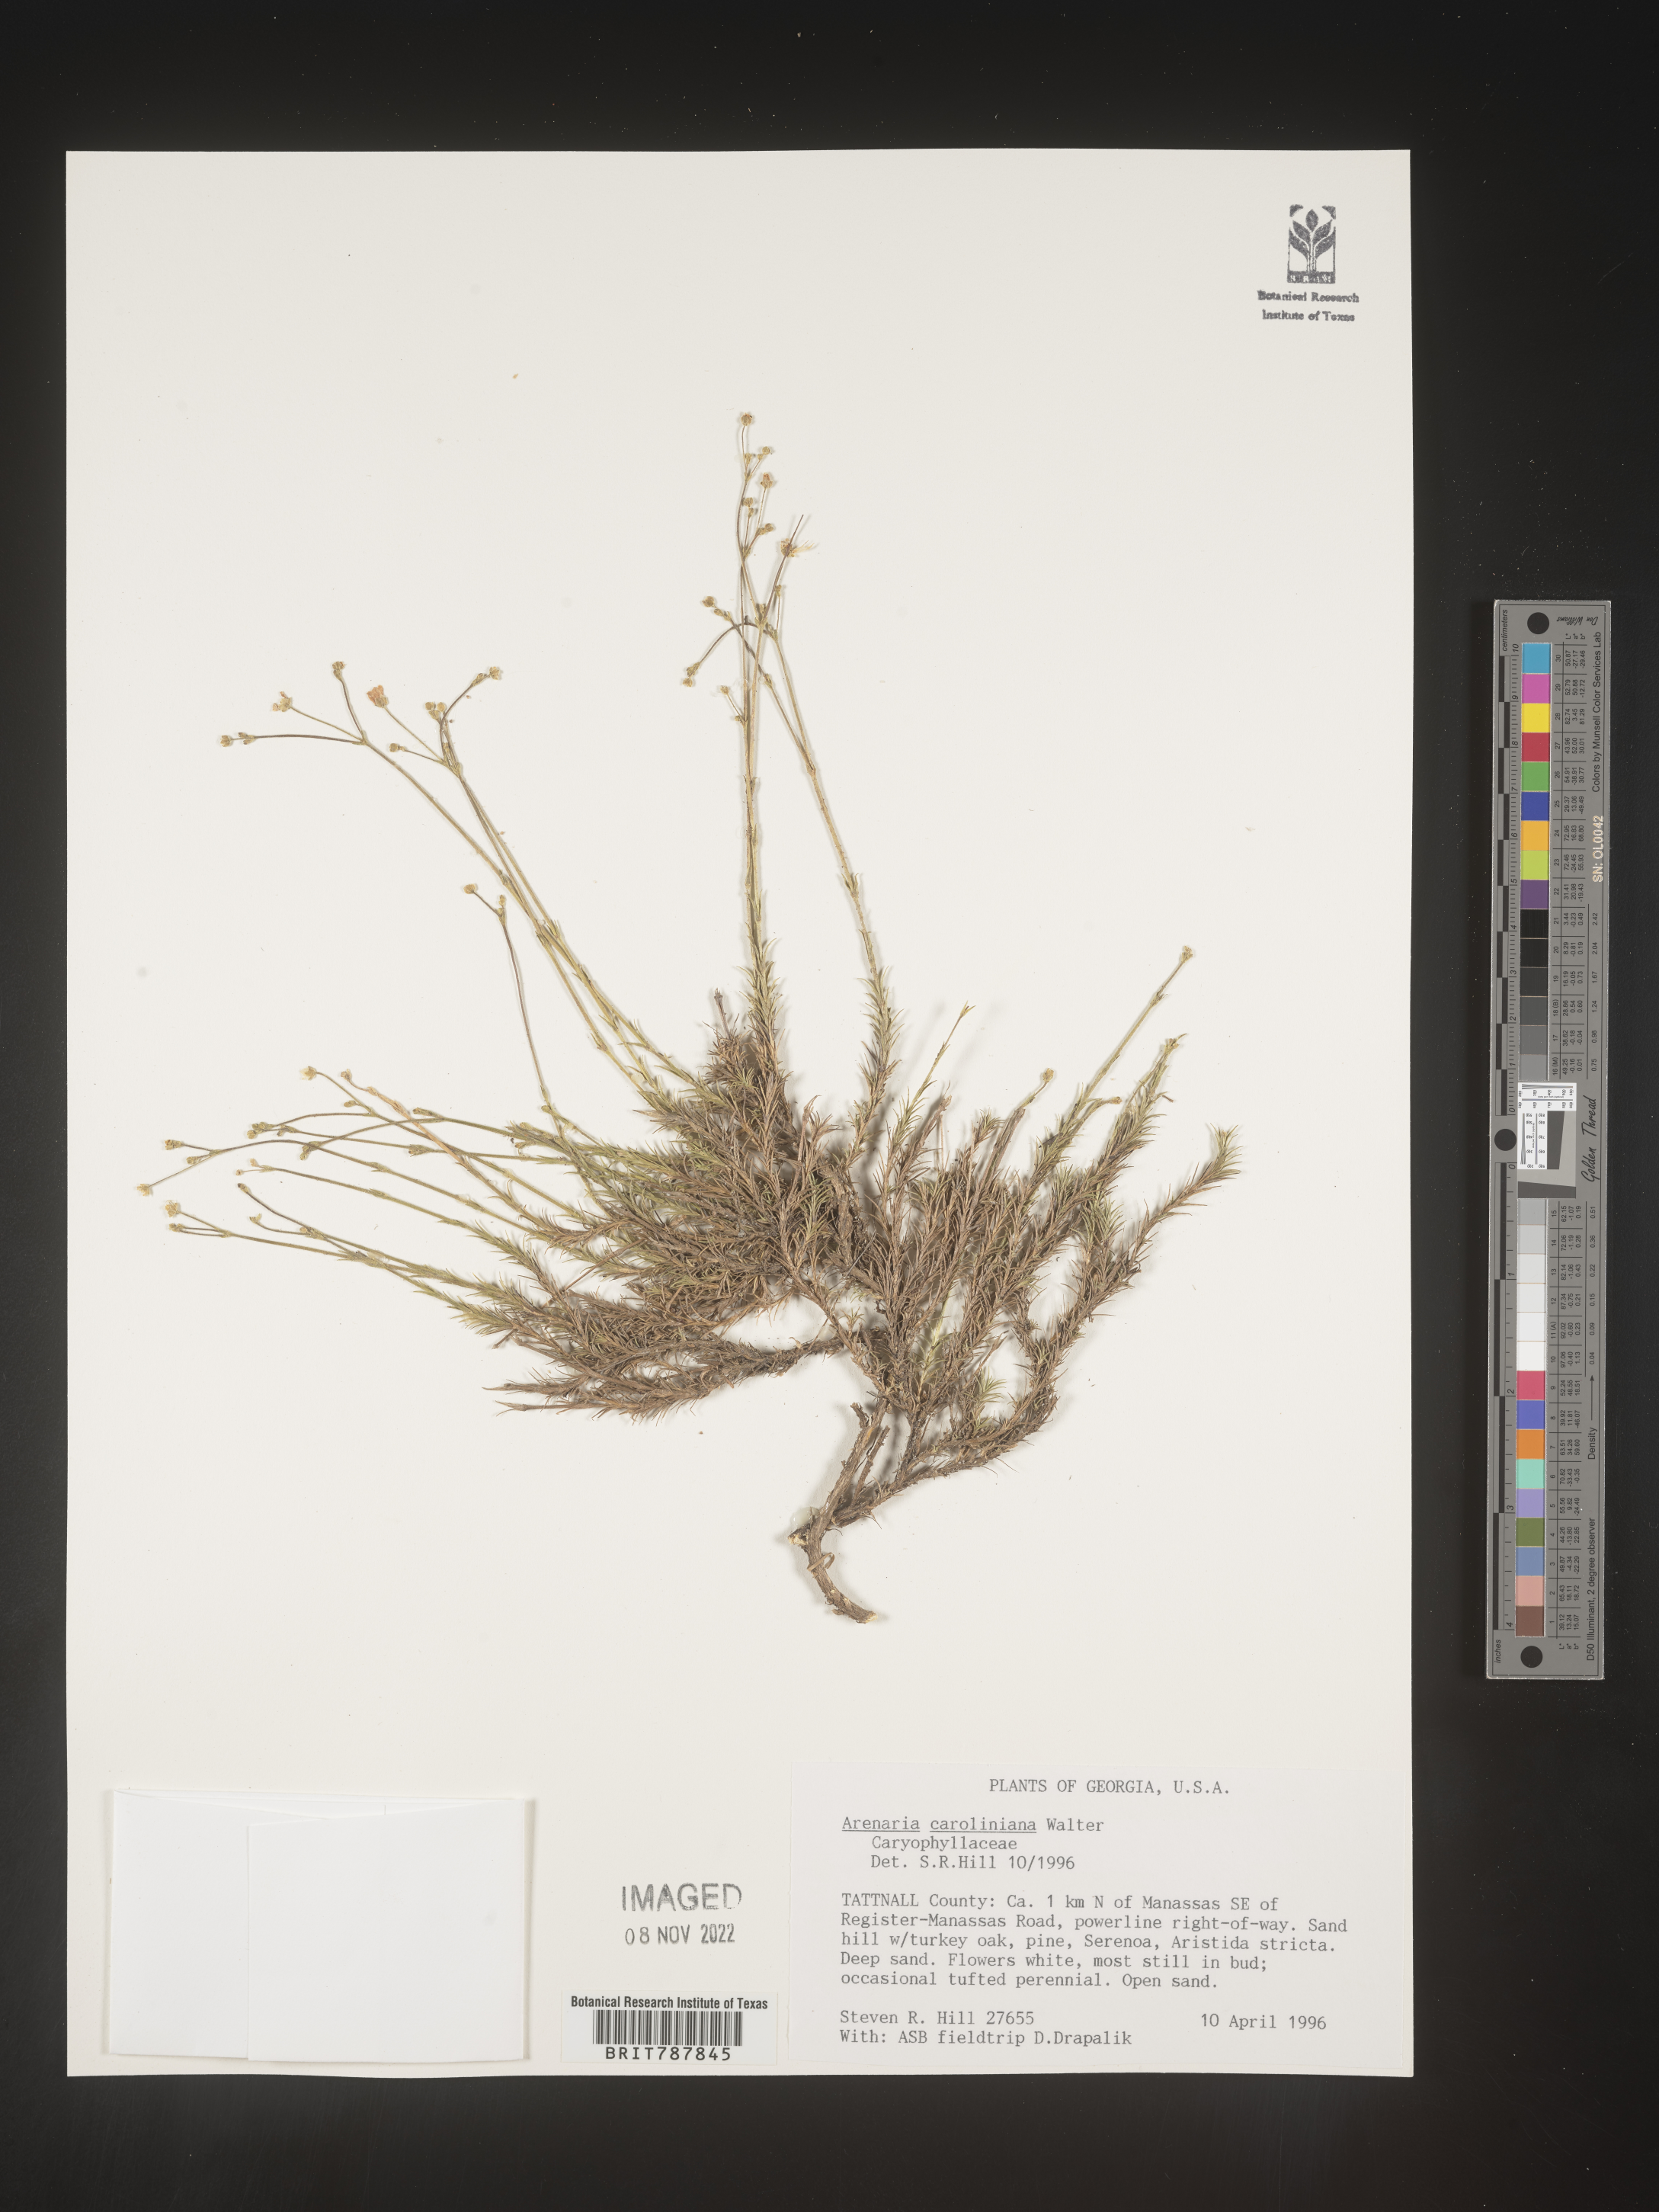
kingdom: Plantae
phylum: Tracheophyta
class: Magnoliopsida
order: Caryophyllales
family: Caryophyllaceae
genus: Arenaria
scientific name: Arenaria
